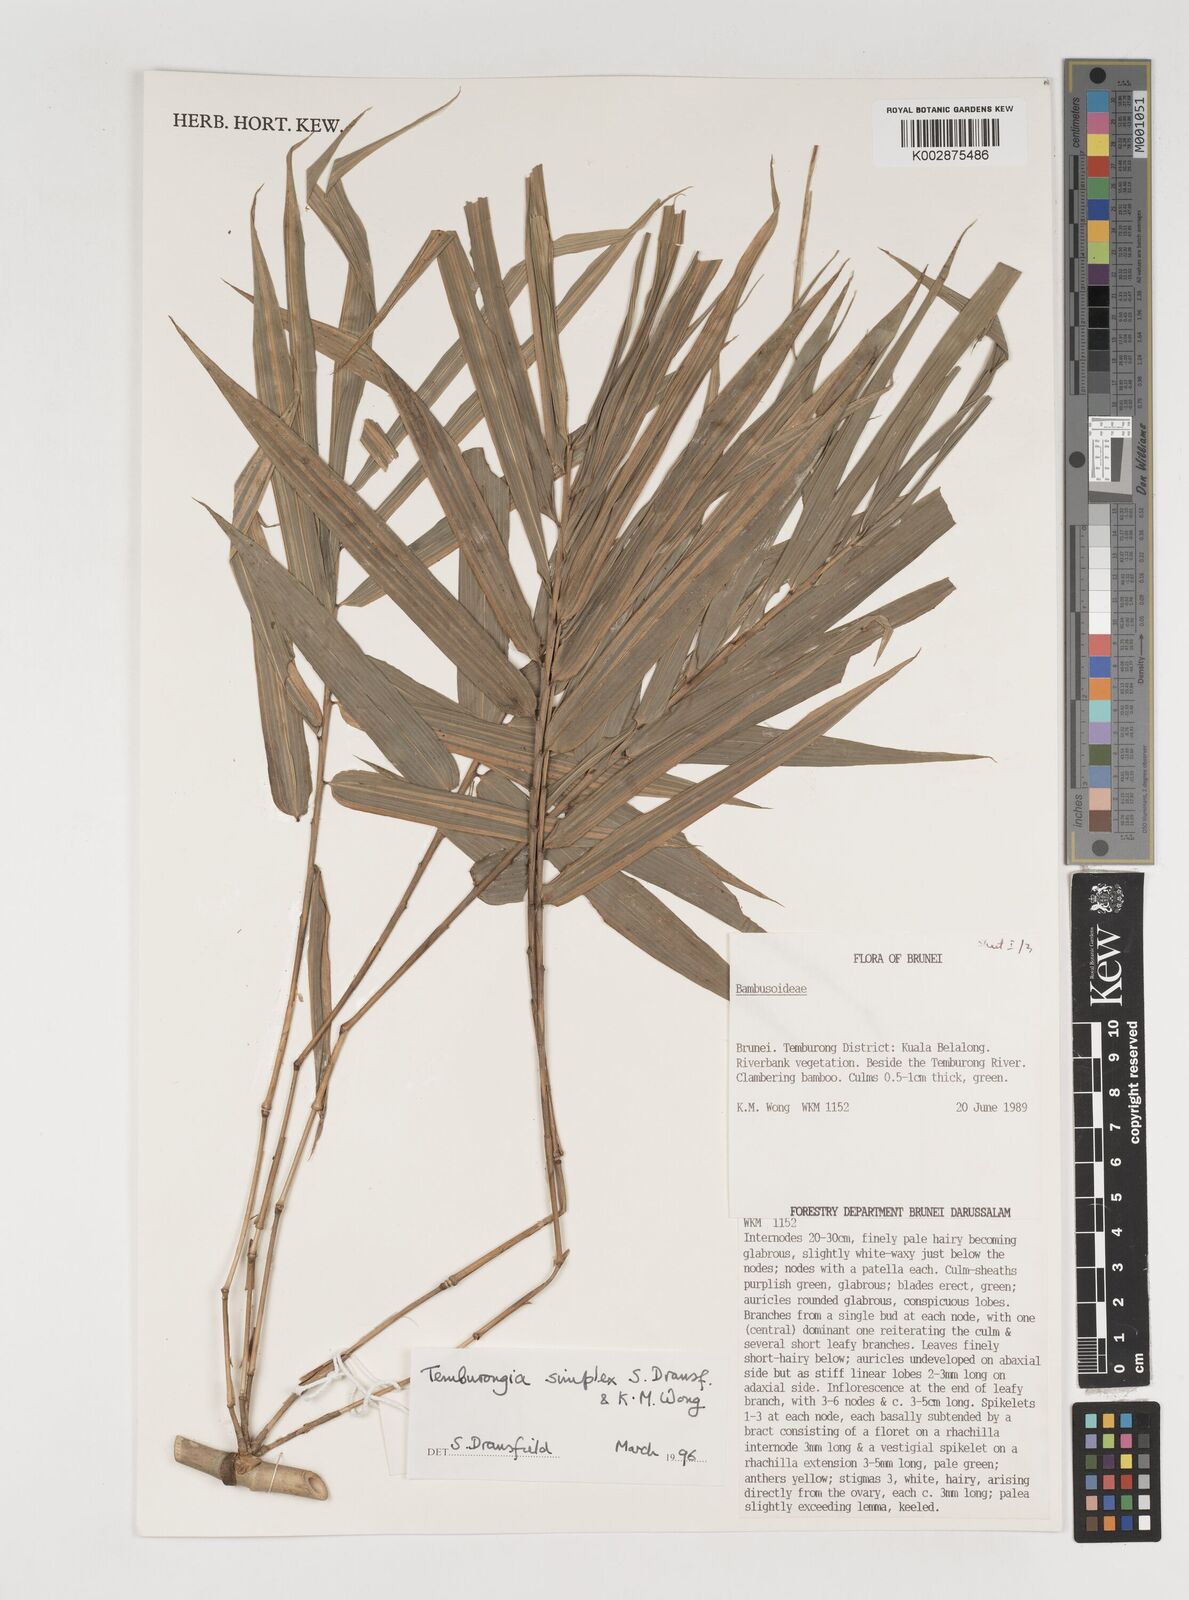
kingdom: Plantae
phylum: Tracheophyta
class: Liliopsida
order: Poales
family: Poaceae
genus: Temburongia
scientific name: Temburongia
